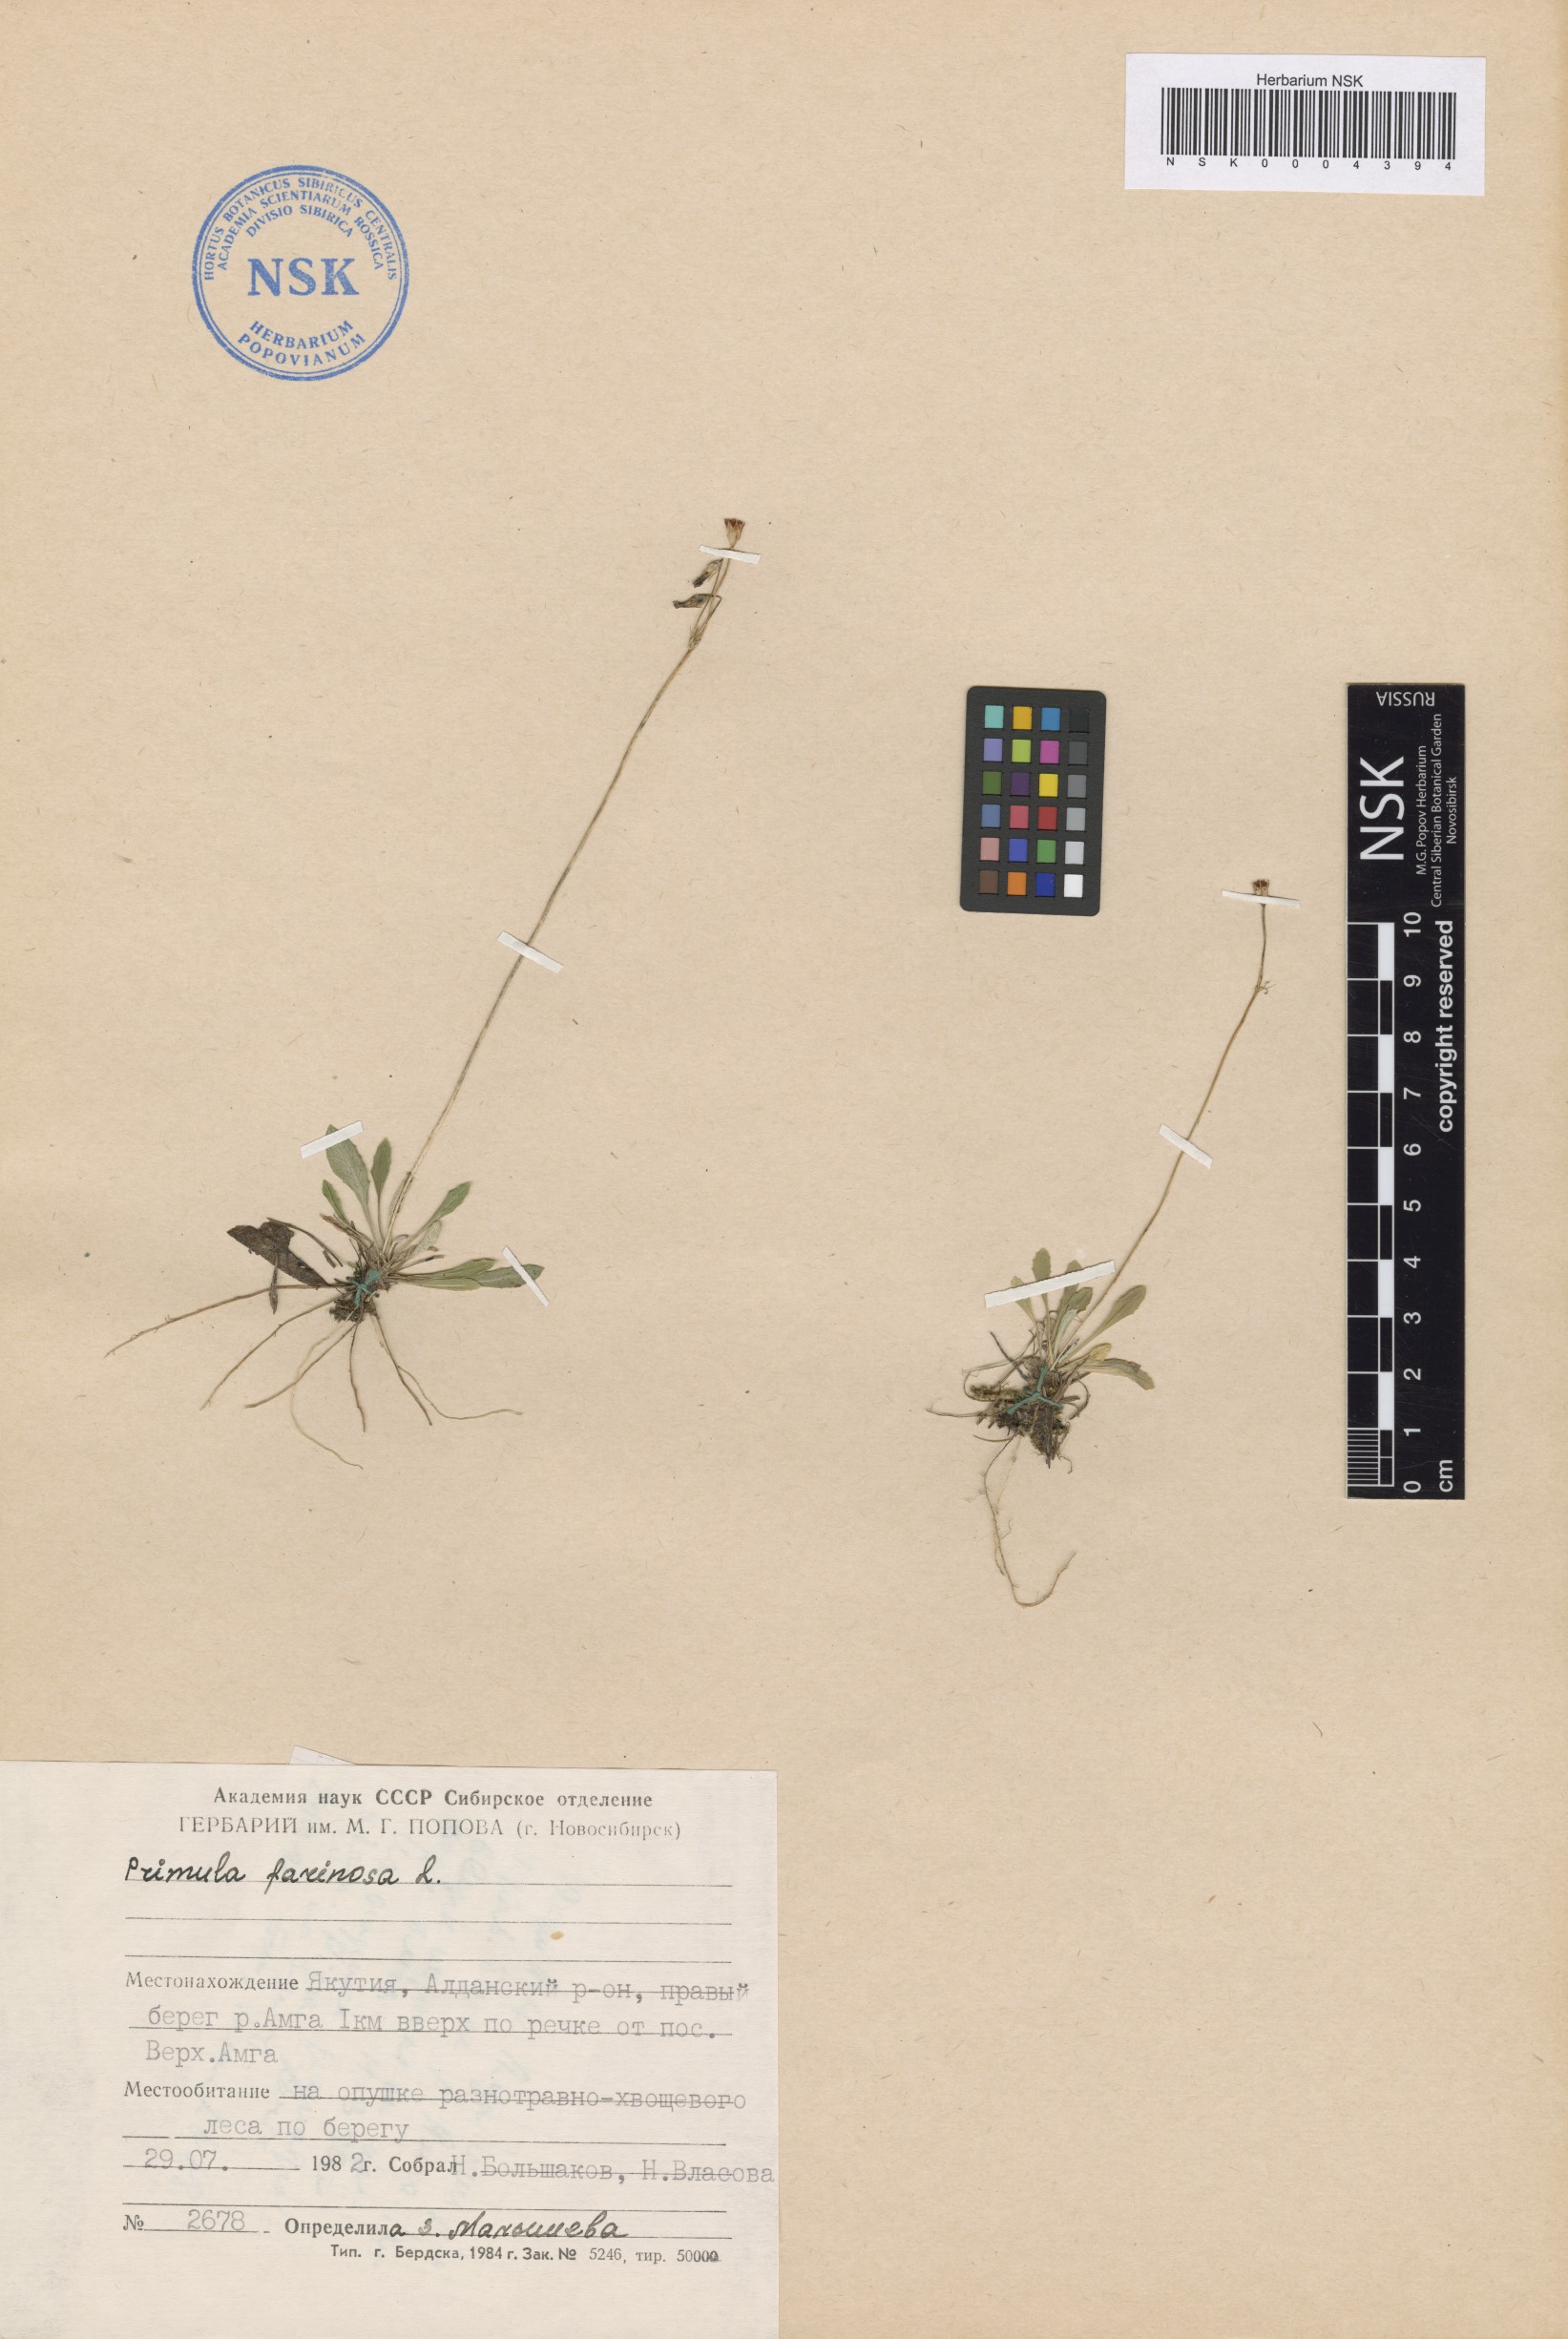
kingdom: Plantae
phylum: Tracheophyta
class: Magnoliopsida
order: Ericales
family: Primulaceae
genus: Primula
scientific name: Primula farinosa
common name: Bird's-eye primrose
